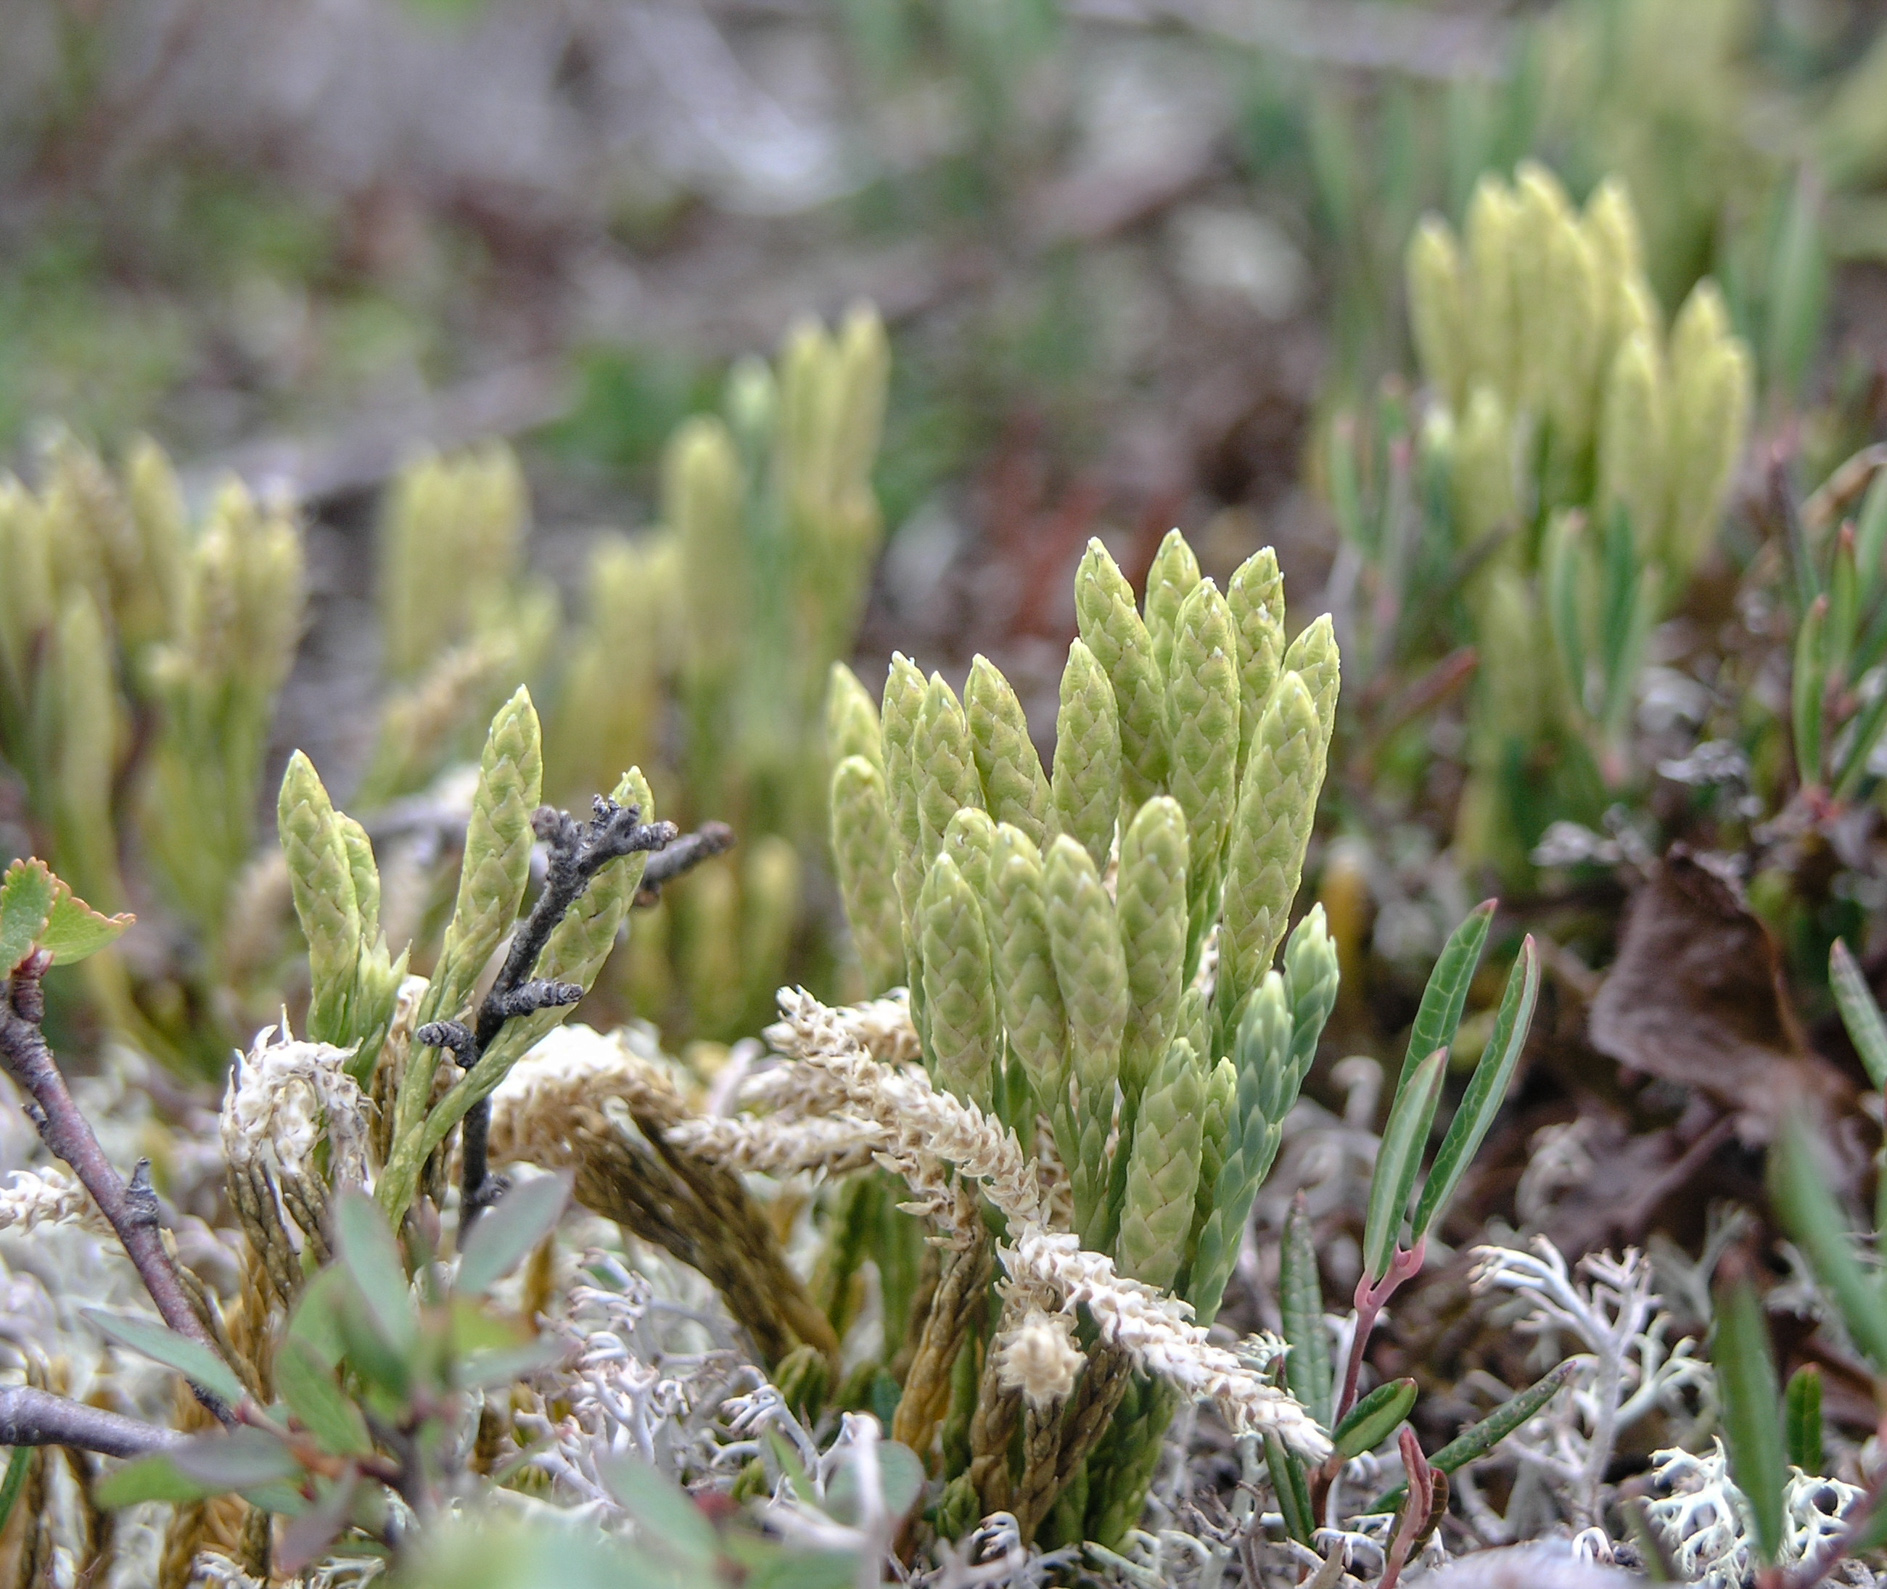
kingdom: Plantae
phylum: Tracheophyta
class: Lycopodiopsida
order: Lycopodiales
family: Lycopodiaceae
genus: Diphasiastrum
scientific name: Diphasiastrum alpinum
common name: Alpine clubmoss
